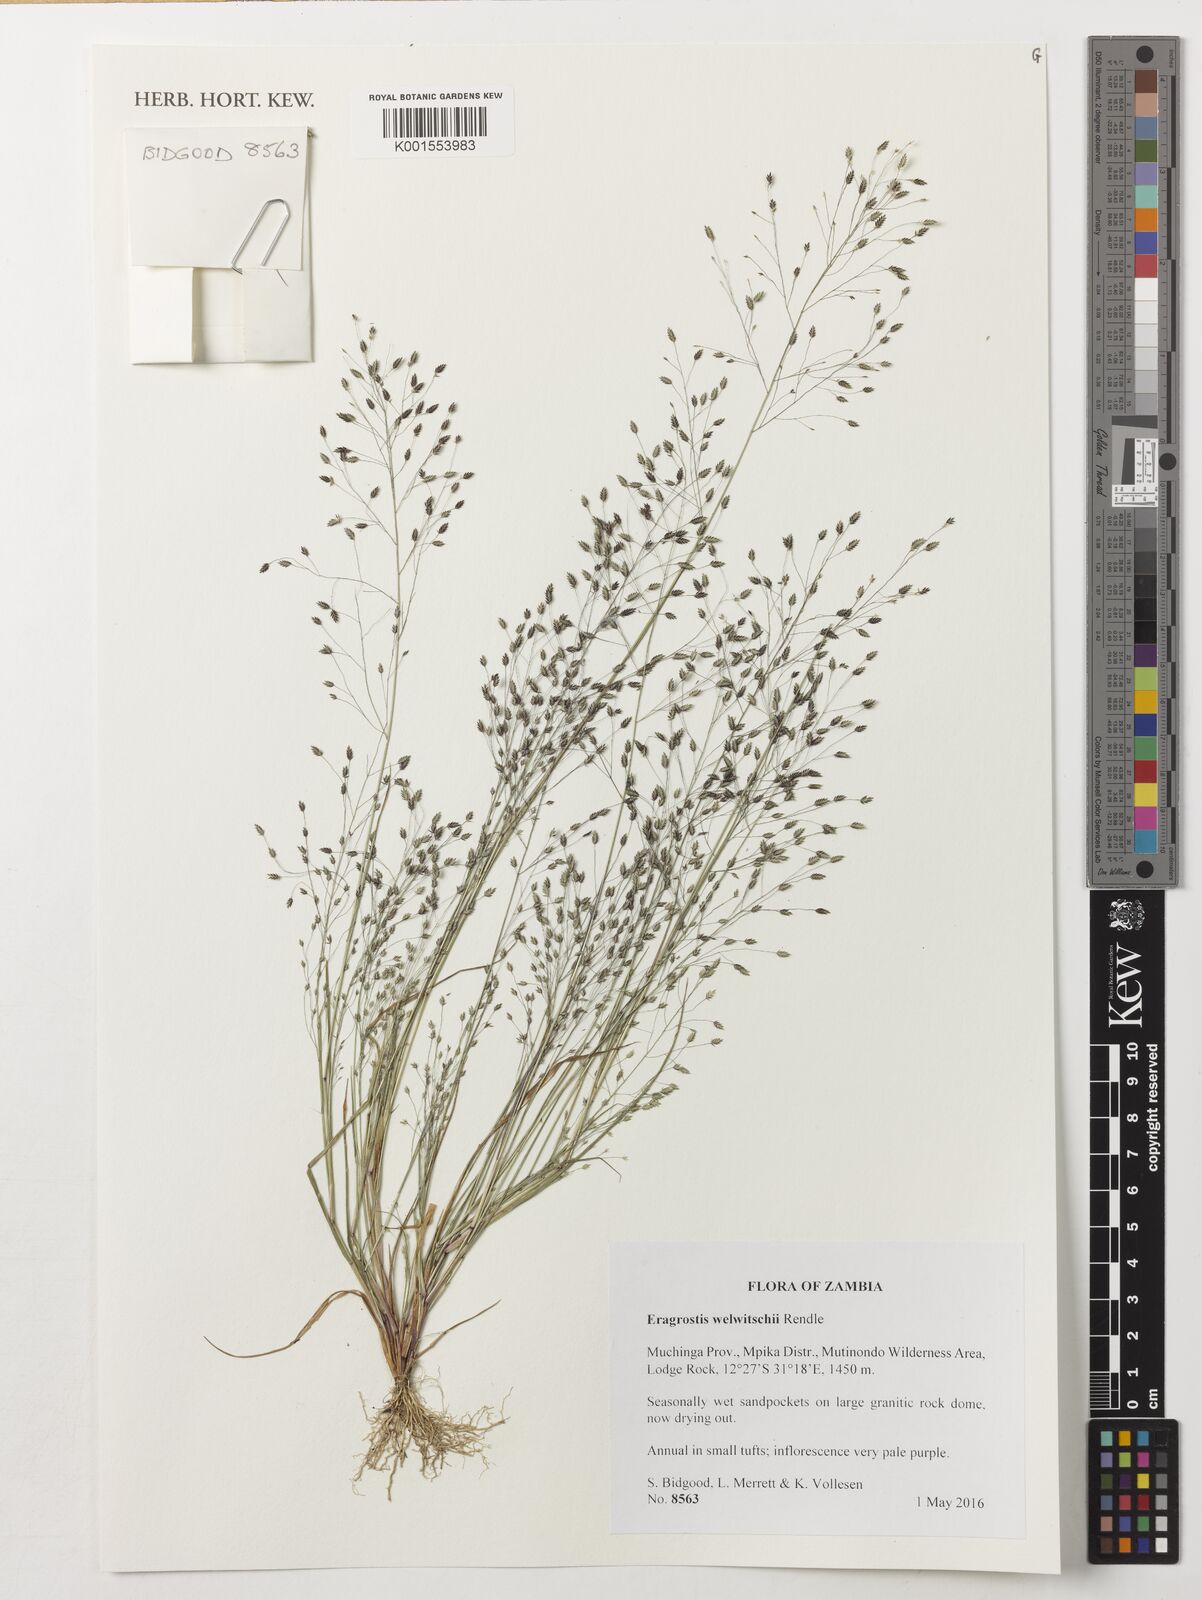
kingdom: Plantae
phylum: Tracheophyta
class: Liliopsida
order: Poales
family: Poaceae
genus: Eragrostis
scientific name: Eragrostis welwitschii
